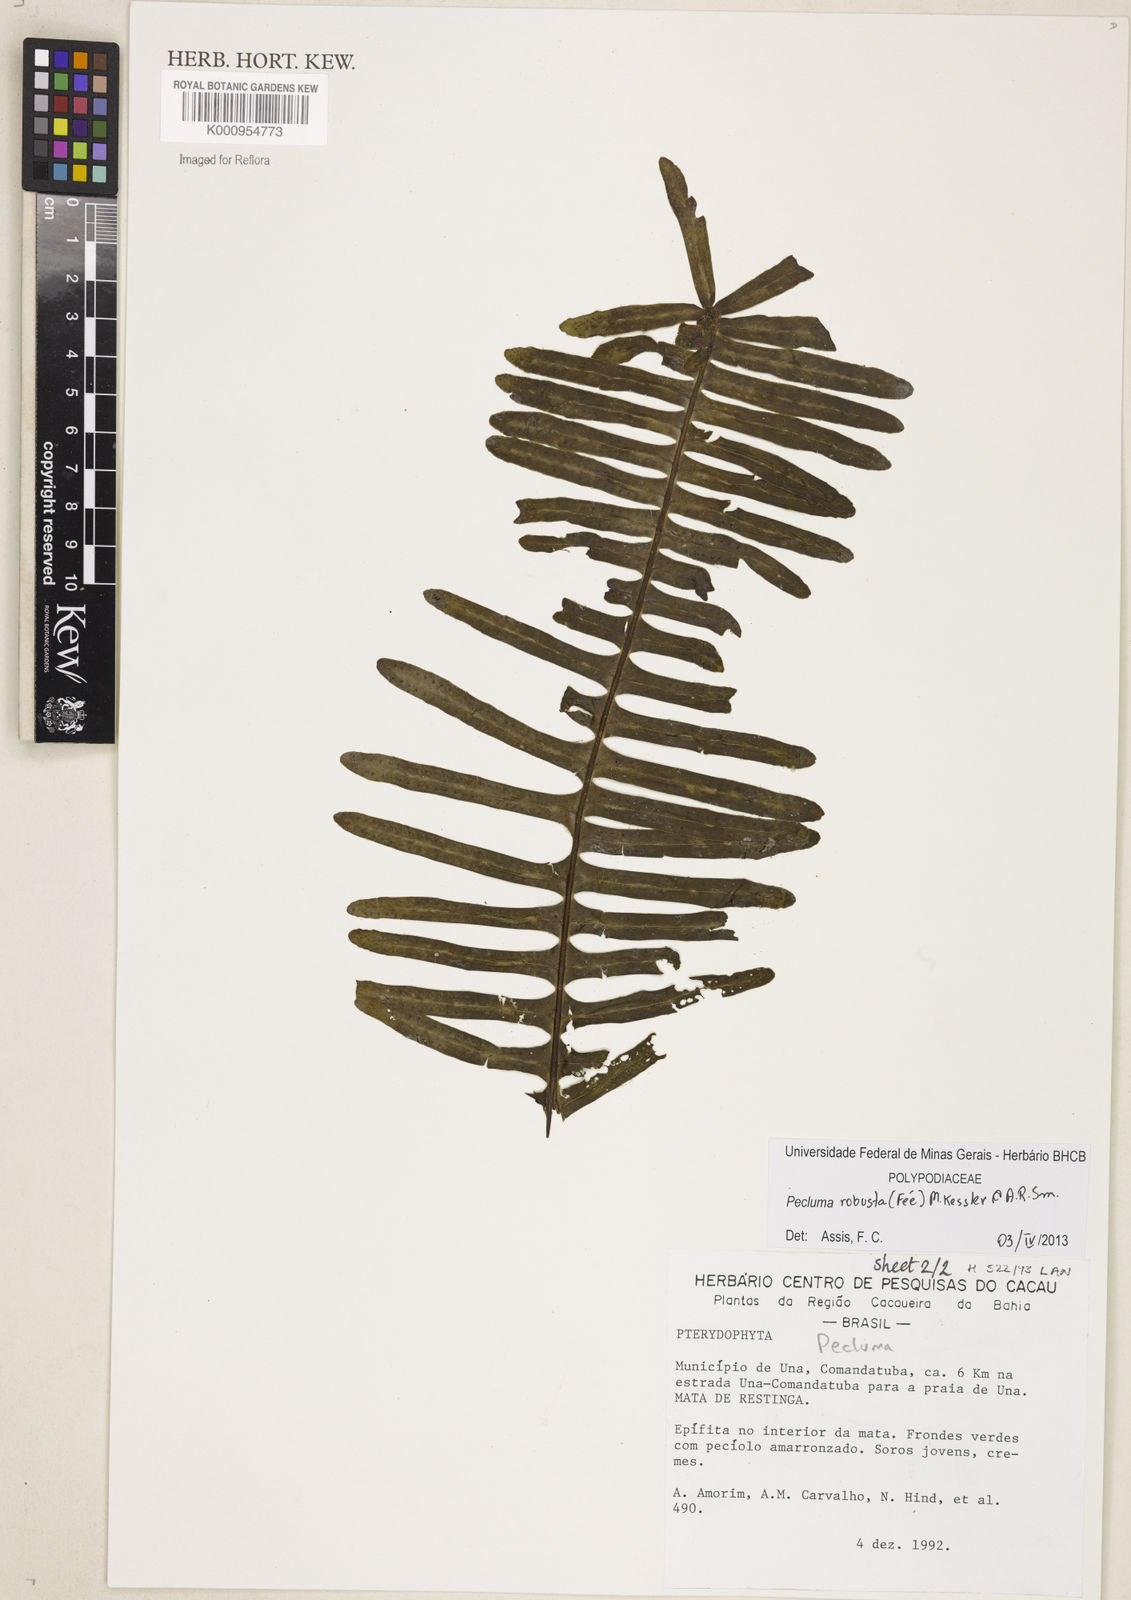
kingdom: Plantae
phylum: Tracheophyta
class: Polypodiopsida
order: Polypodiales
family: Polypodiaceae
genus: Pecluma
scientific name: Pecluma
